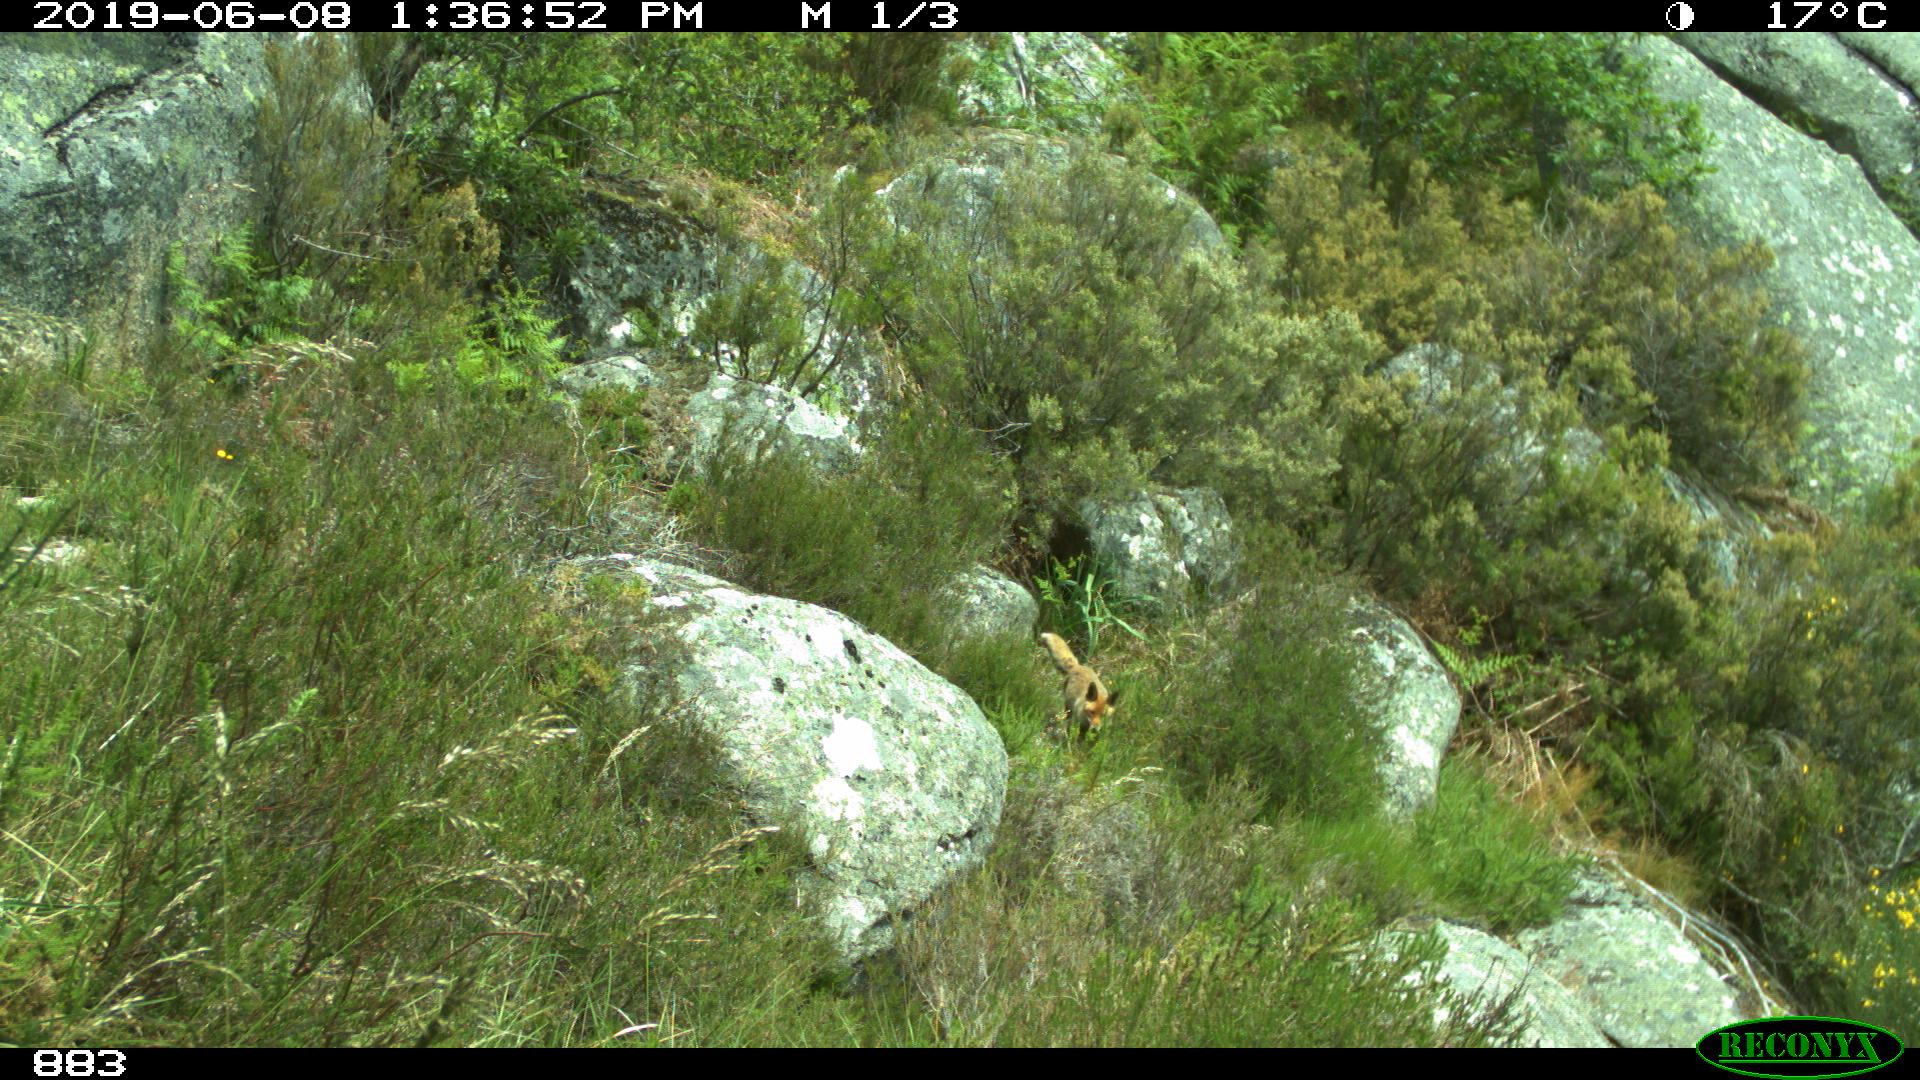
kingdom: Animalia
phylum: Chordata
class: Mammalia
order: Carnivora
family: Canidae
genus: Vulpes
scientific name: Vulpes vulpes
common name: Red fox
